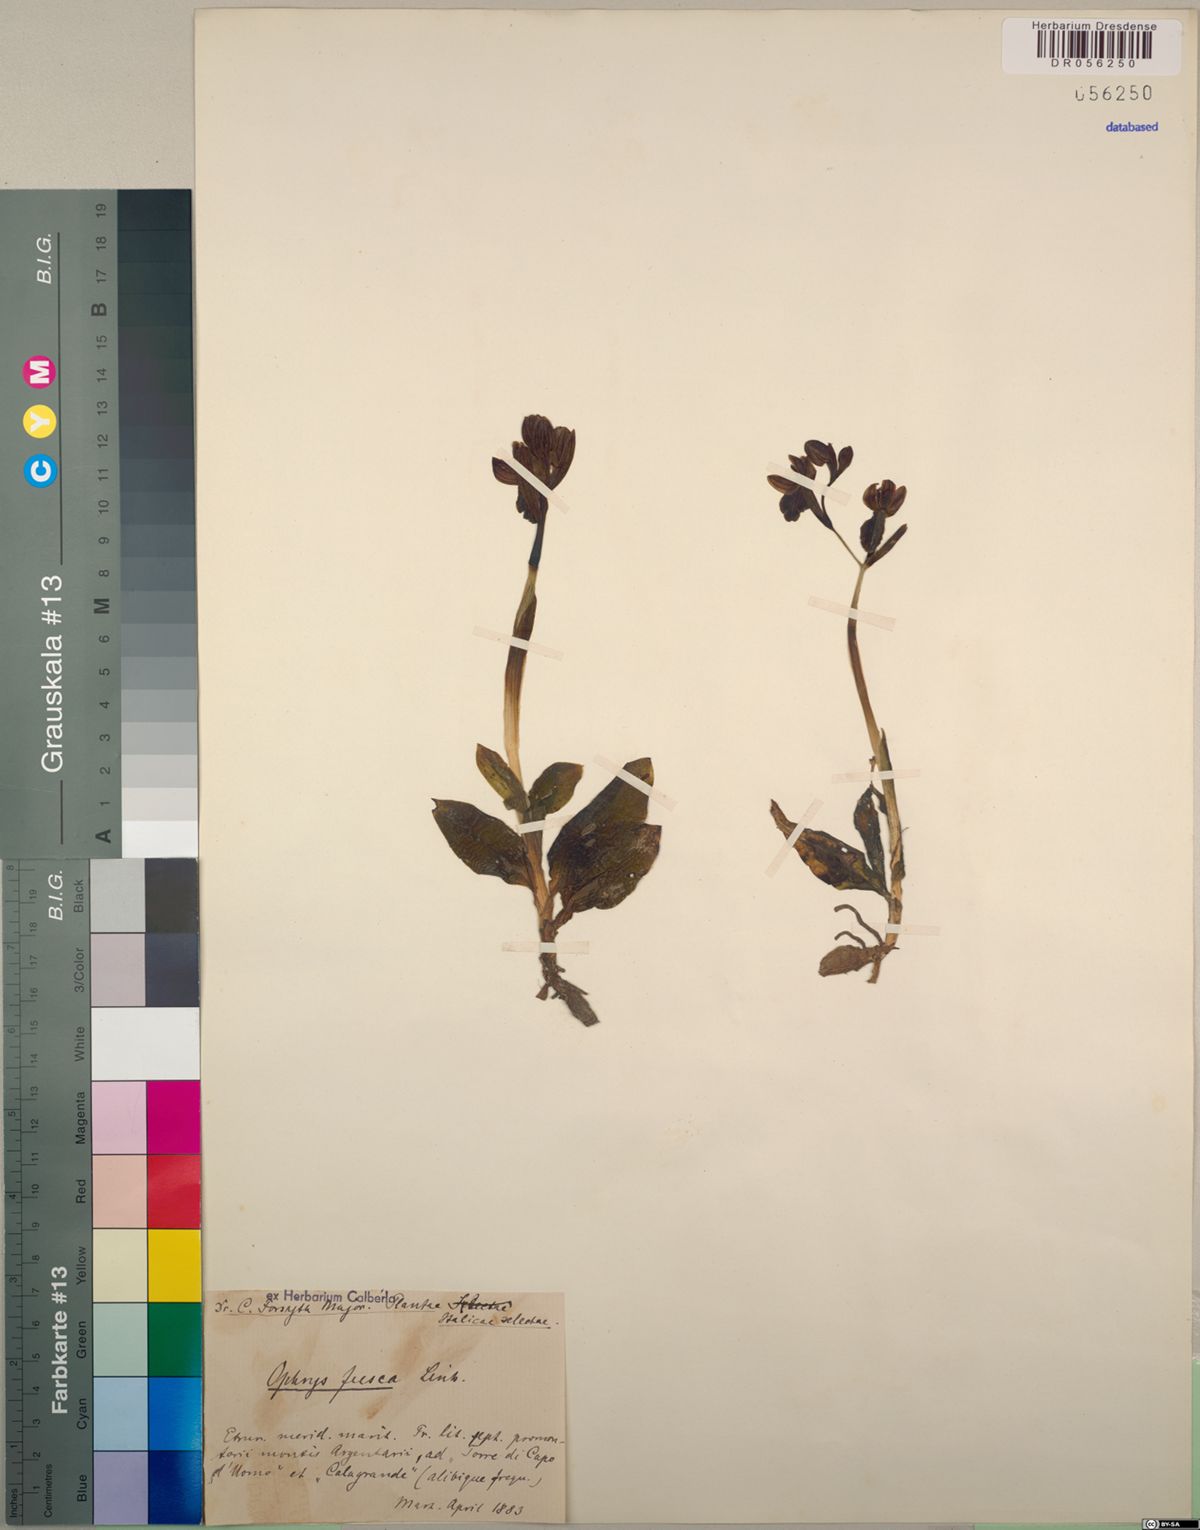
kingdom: Plantae
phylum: Tracheophyta
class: Liliopsida
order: Asparagales
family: Orchidaceae
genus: Ophrys
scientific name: Ophrys fusca
